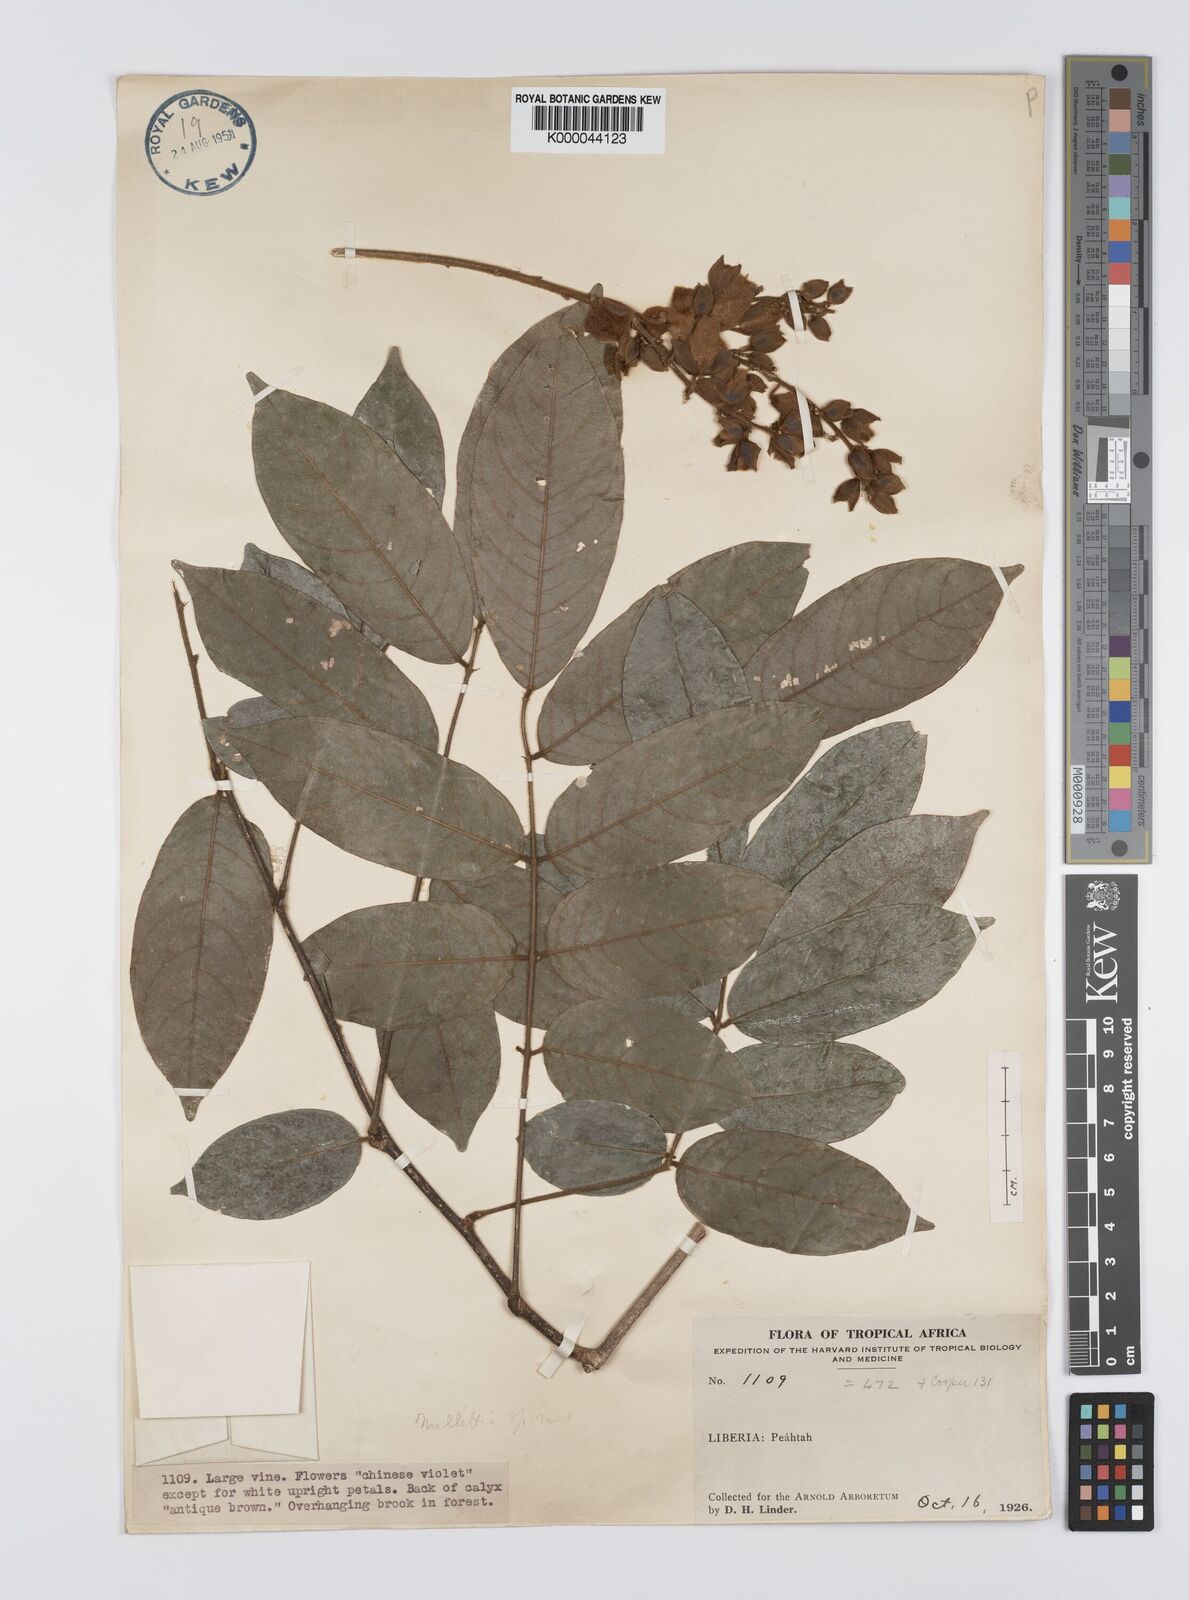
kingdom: Plantae
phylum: Tracheophyta
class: Magnoliopsida
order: Fabales
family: Fabaceae
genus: Platysepalum
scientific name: Platysepalum hirsutum
